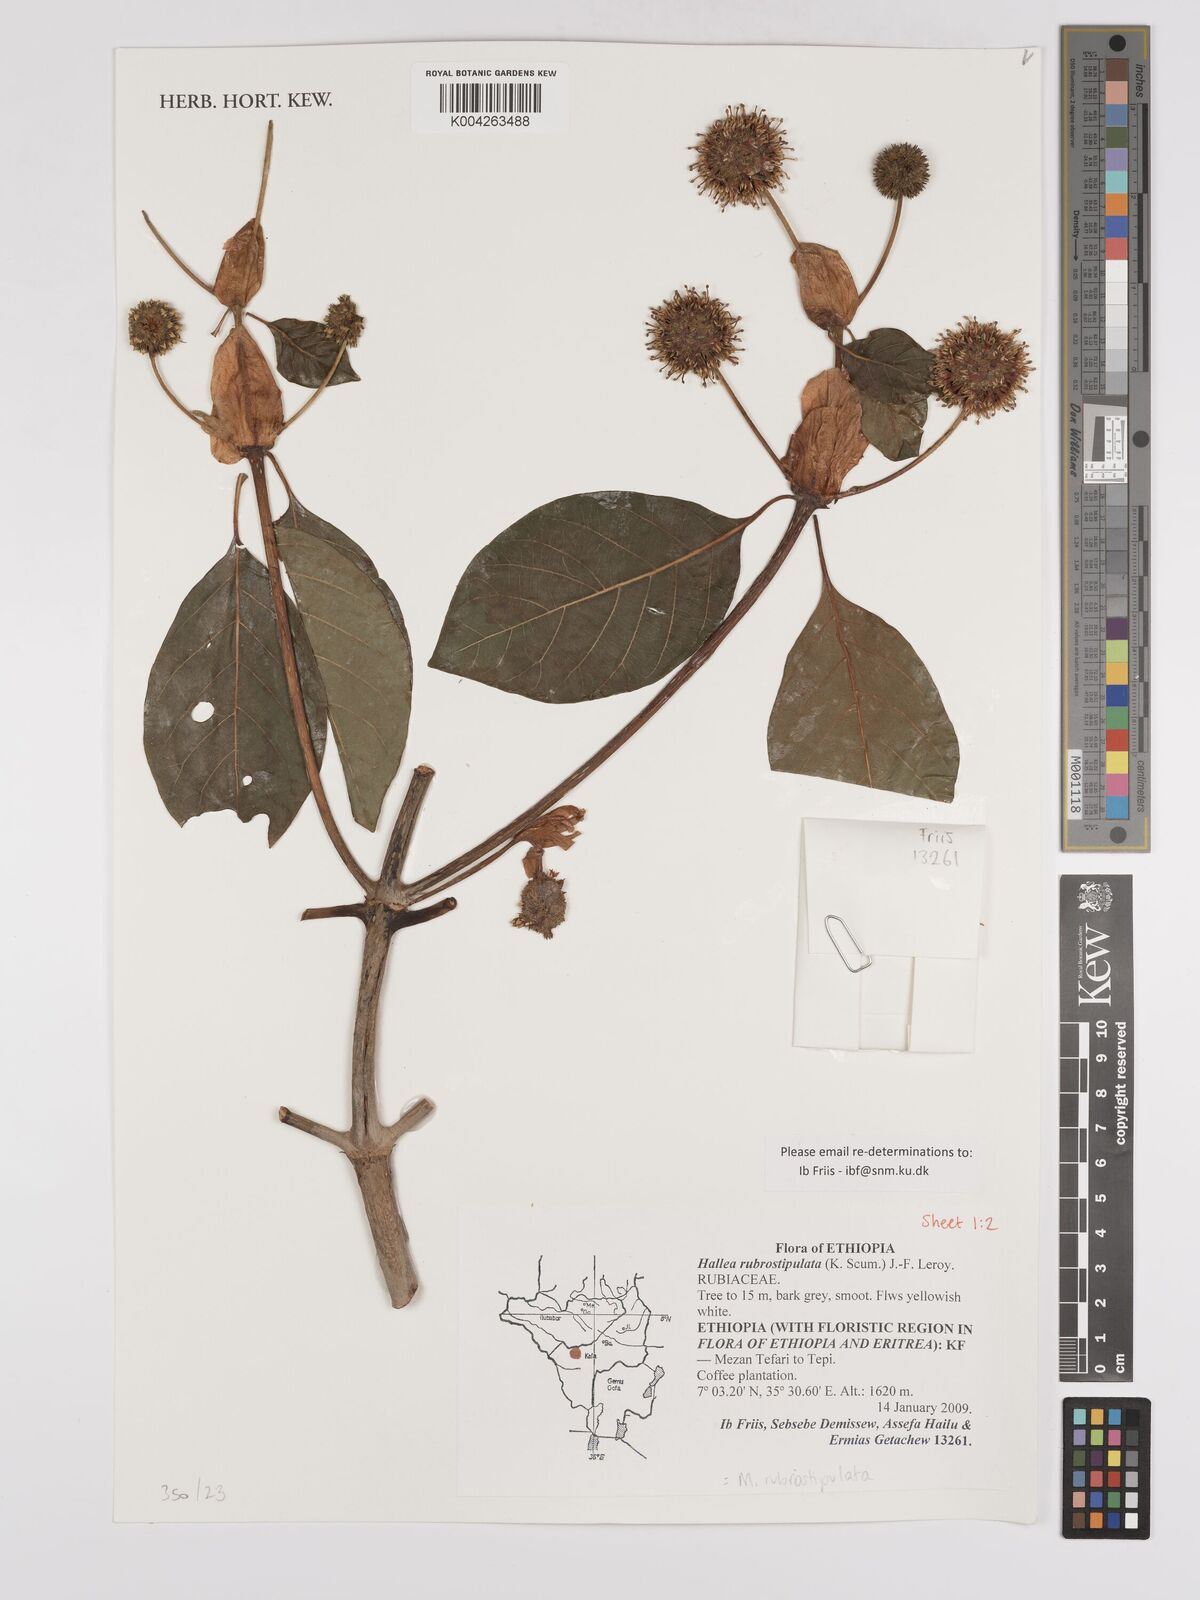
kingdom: Plantae
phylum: Tracheophyta
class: Magnoliopsida
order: Gentianales
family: Rubiaceae
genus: Mitragyna
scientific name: Mitragyna rubrostipulata
